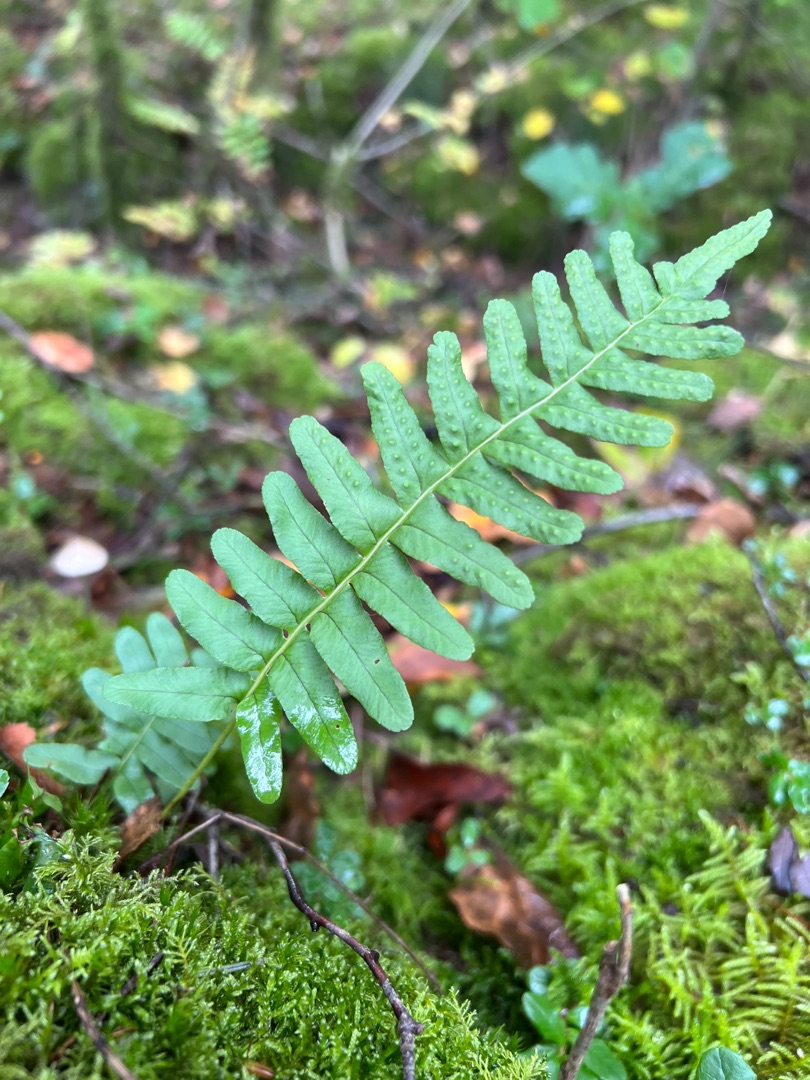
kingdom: Plantae
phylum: Tracheophyta
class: Polypodiopsida
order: Polypodiales
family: Polypodiaceae
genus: Polypodium
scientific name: Polypodium vulgare
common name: Almindelig engelsød
